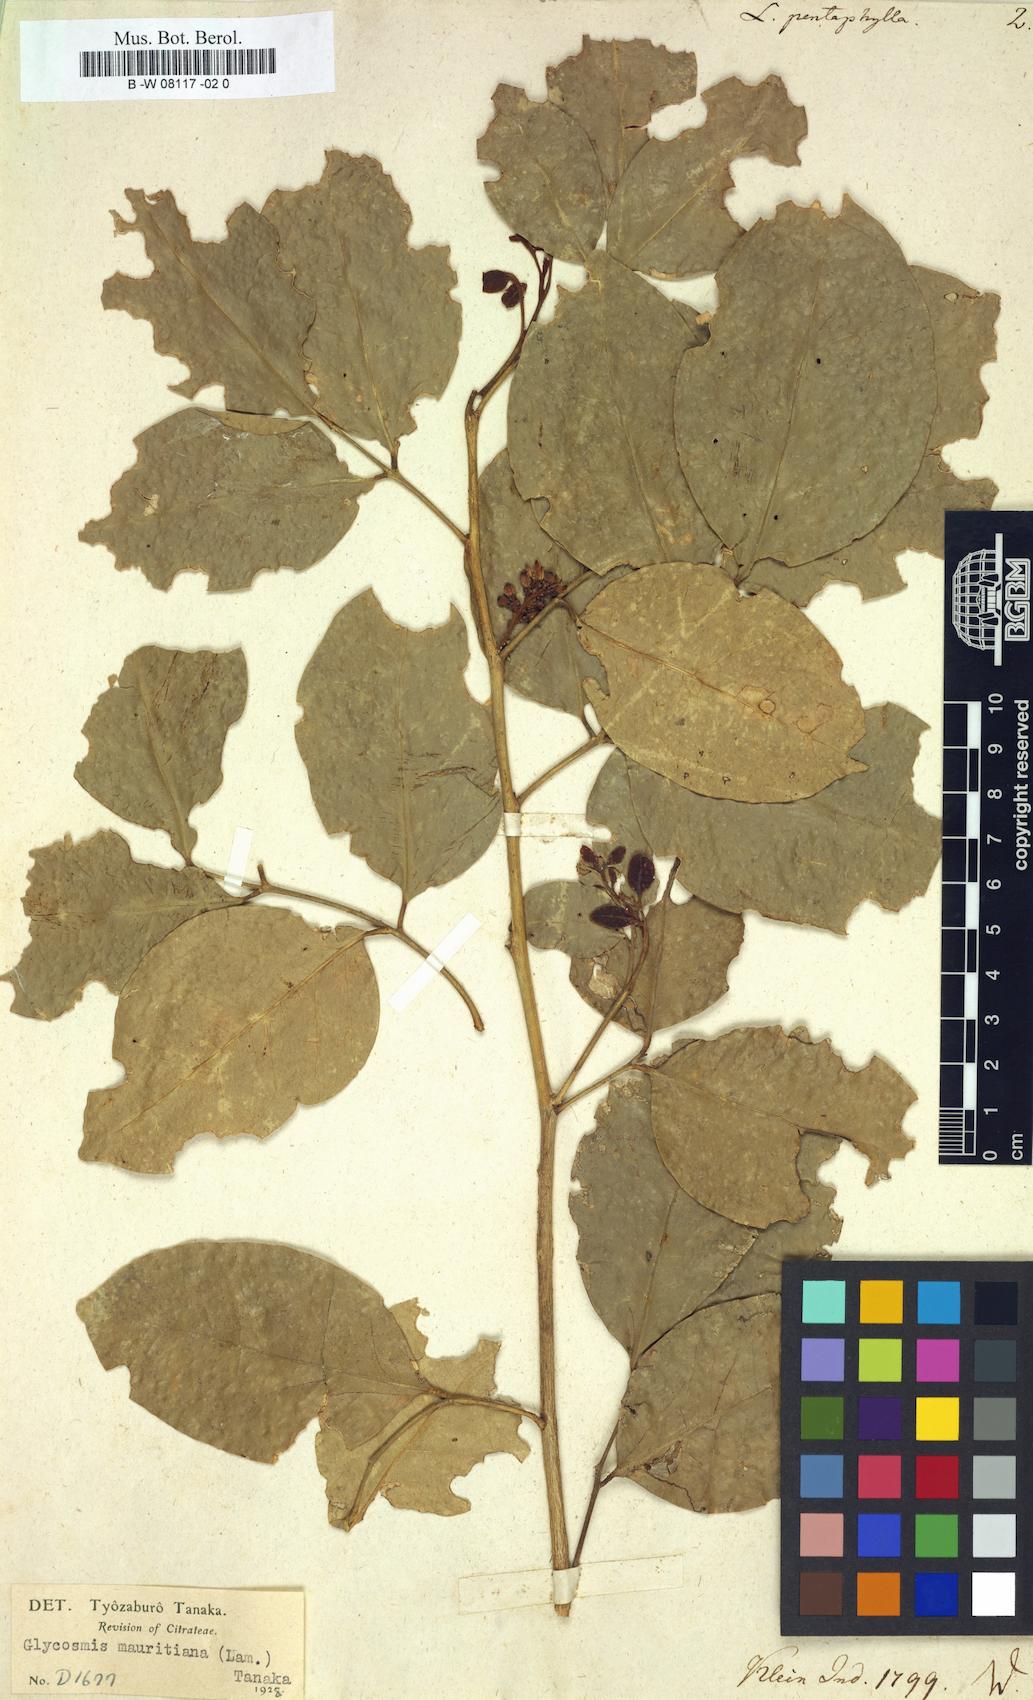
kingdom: Plantae
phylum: Tracheophyta
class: Magnoliopsida
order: Sapindales
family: Rutaceae
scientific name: Rutaceae
